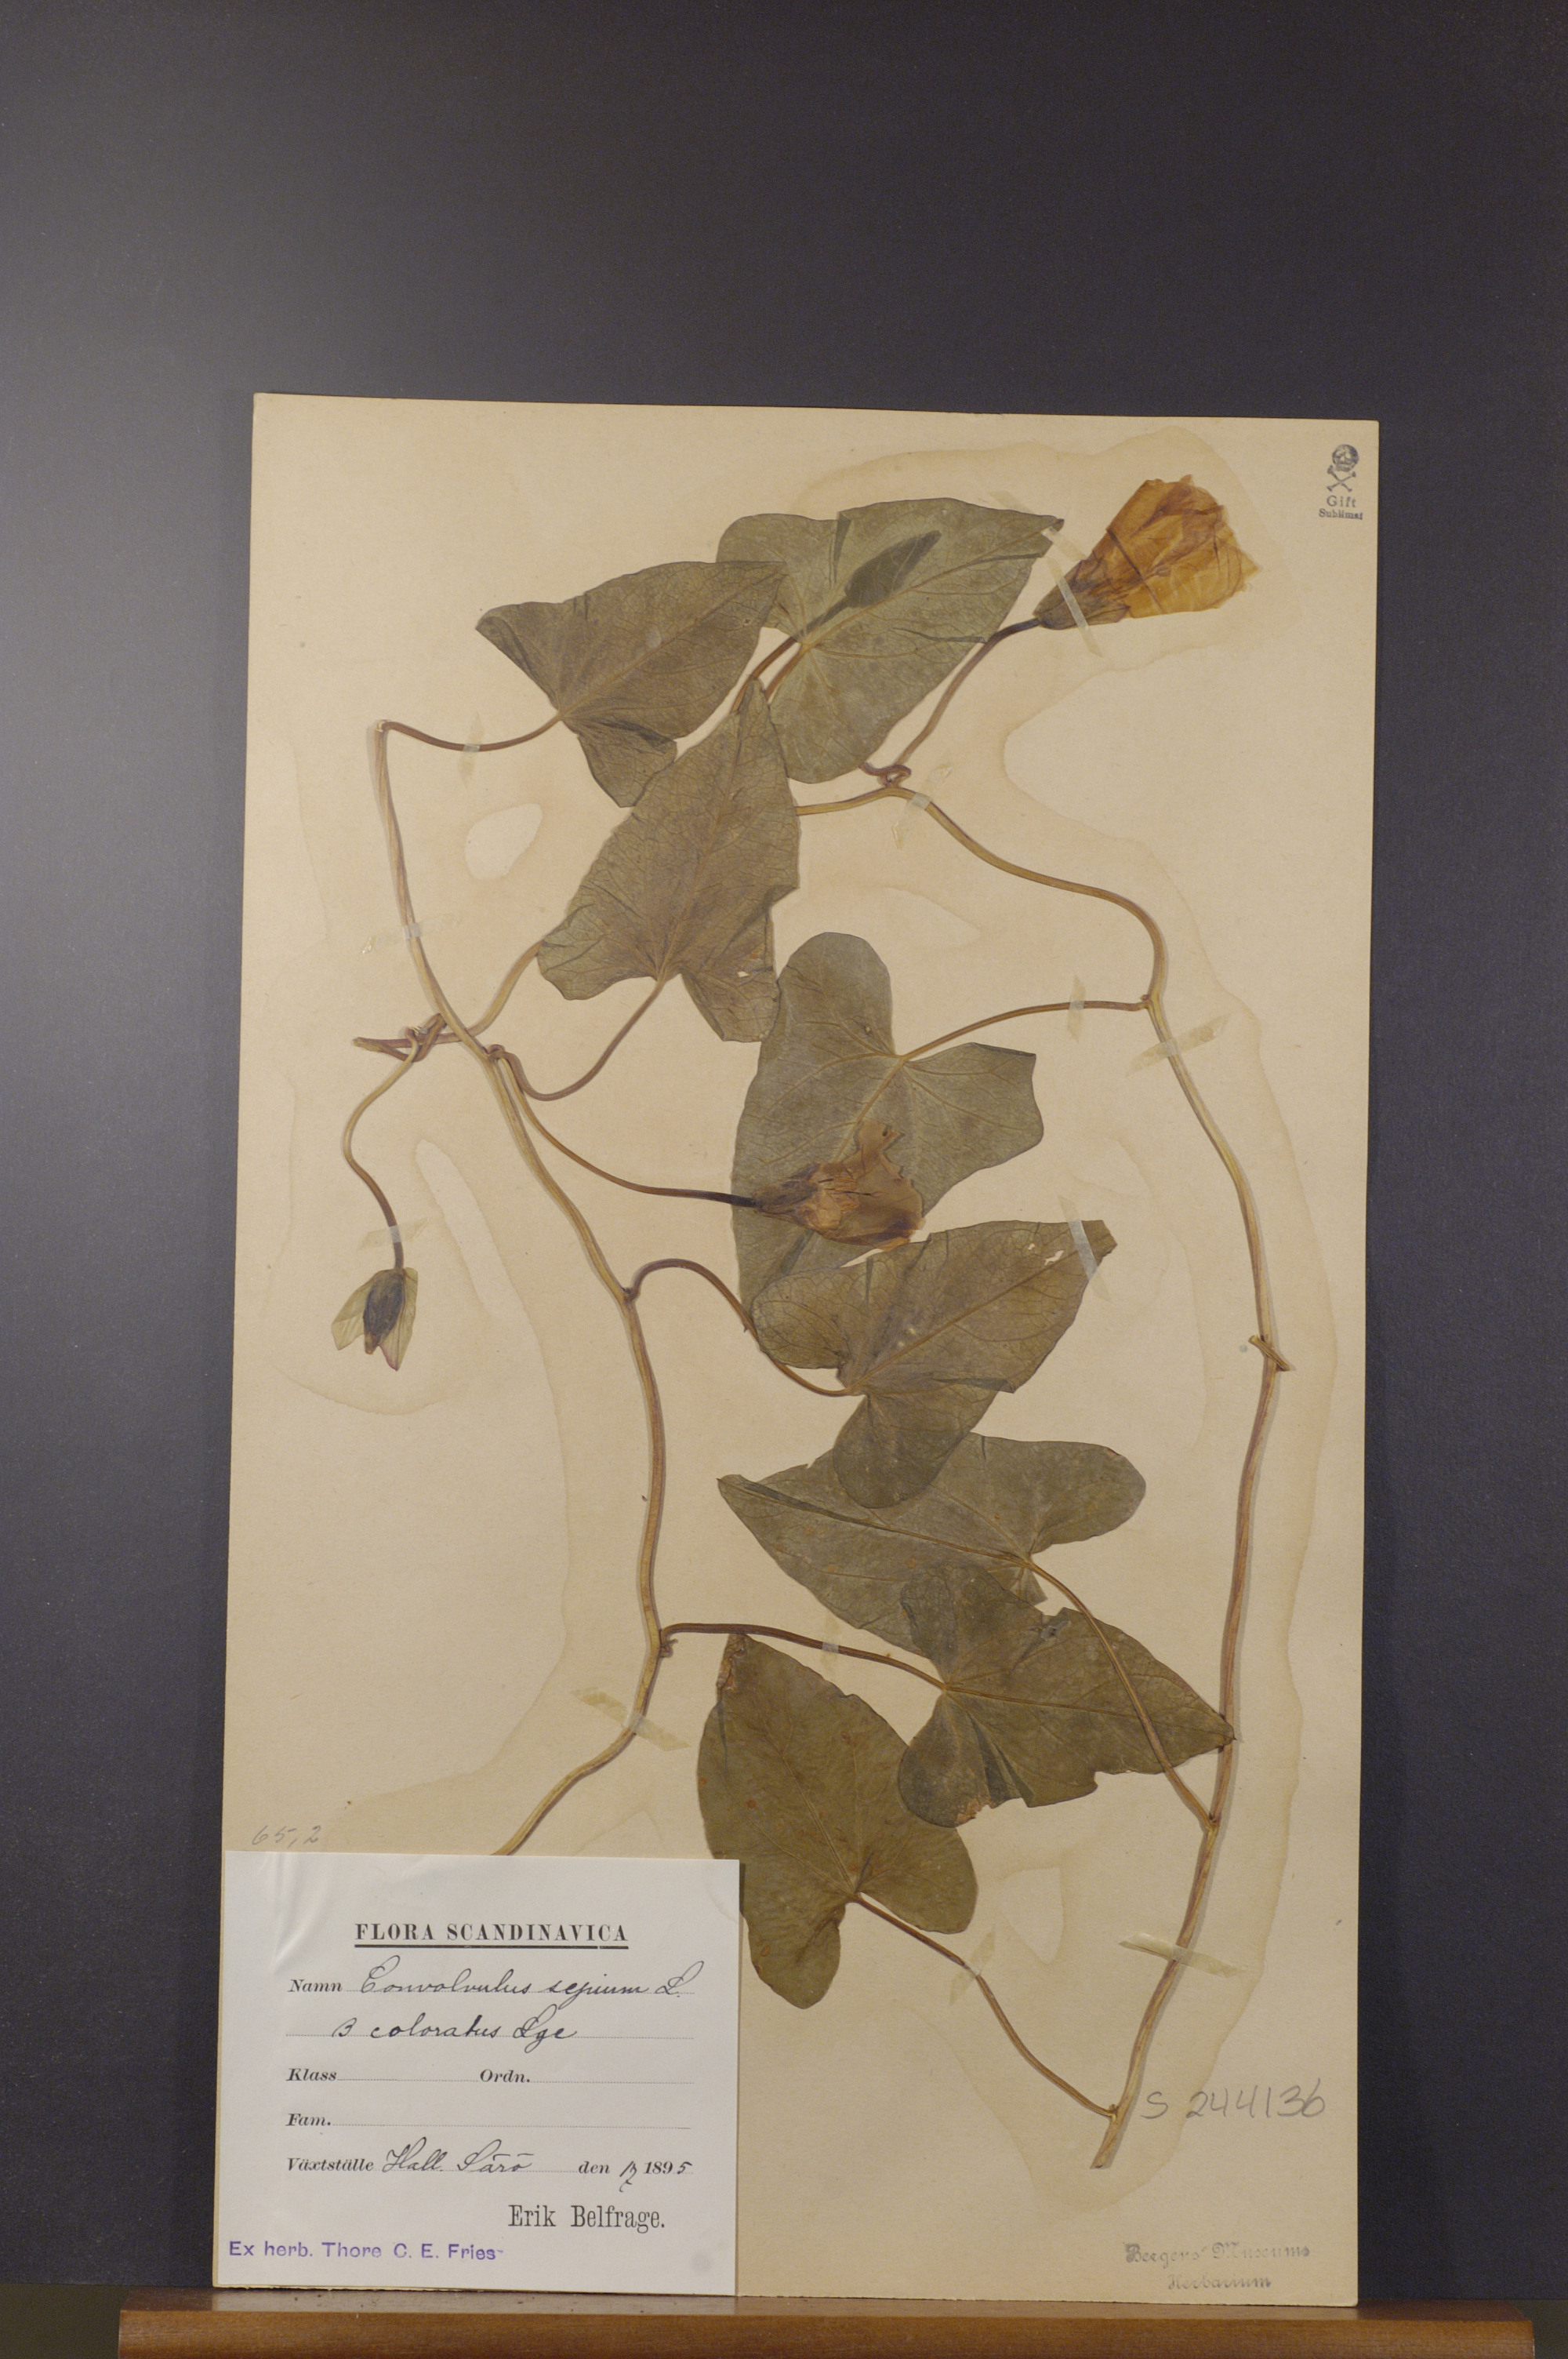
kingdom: Plantae
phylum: Tracheophyta
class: Magnoliopsida
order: Solanales
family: Convolvulaceae
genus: Calystegia
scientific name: Calystegia sepium
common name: Hedge bindweed
